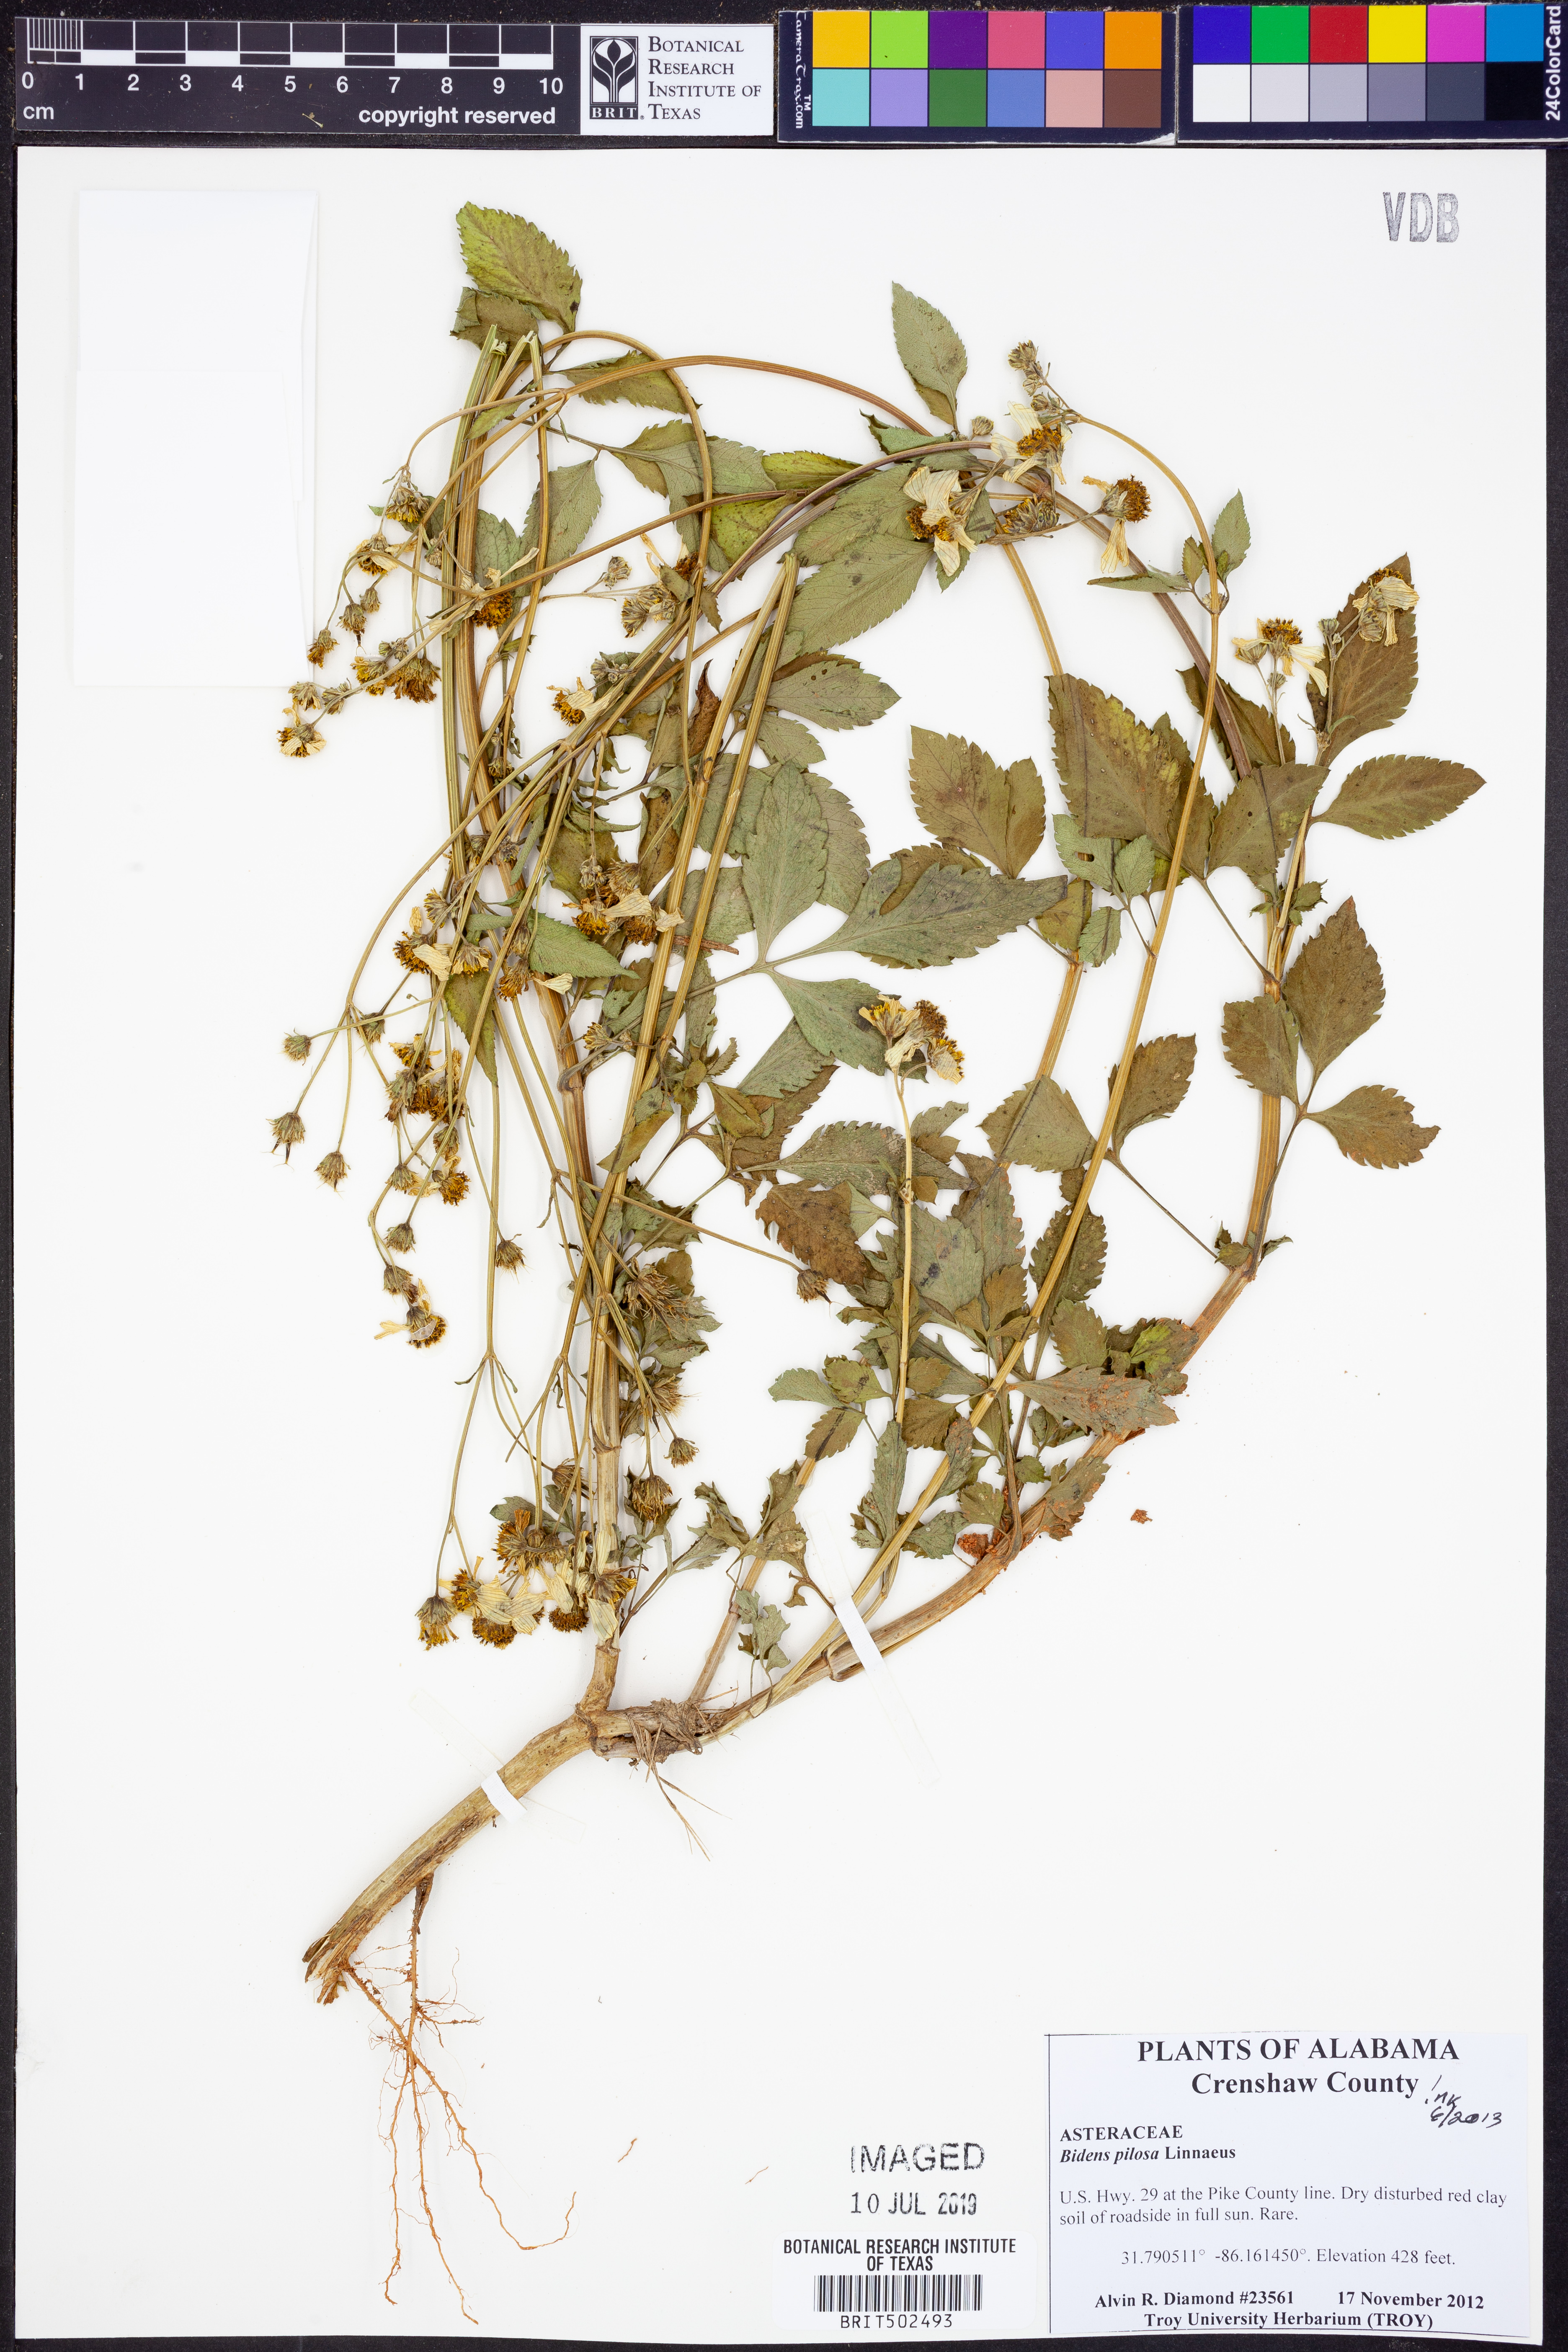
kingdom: Plantae
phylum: Tracheophyta
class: Magnoliopsida
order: Asterales
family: Asteraceae
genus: Bidens
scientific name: Bidens pilosa
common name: Black-jack
